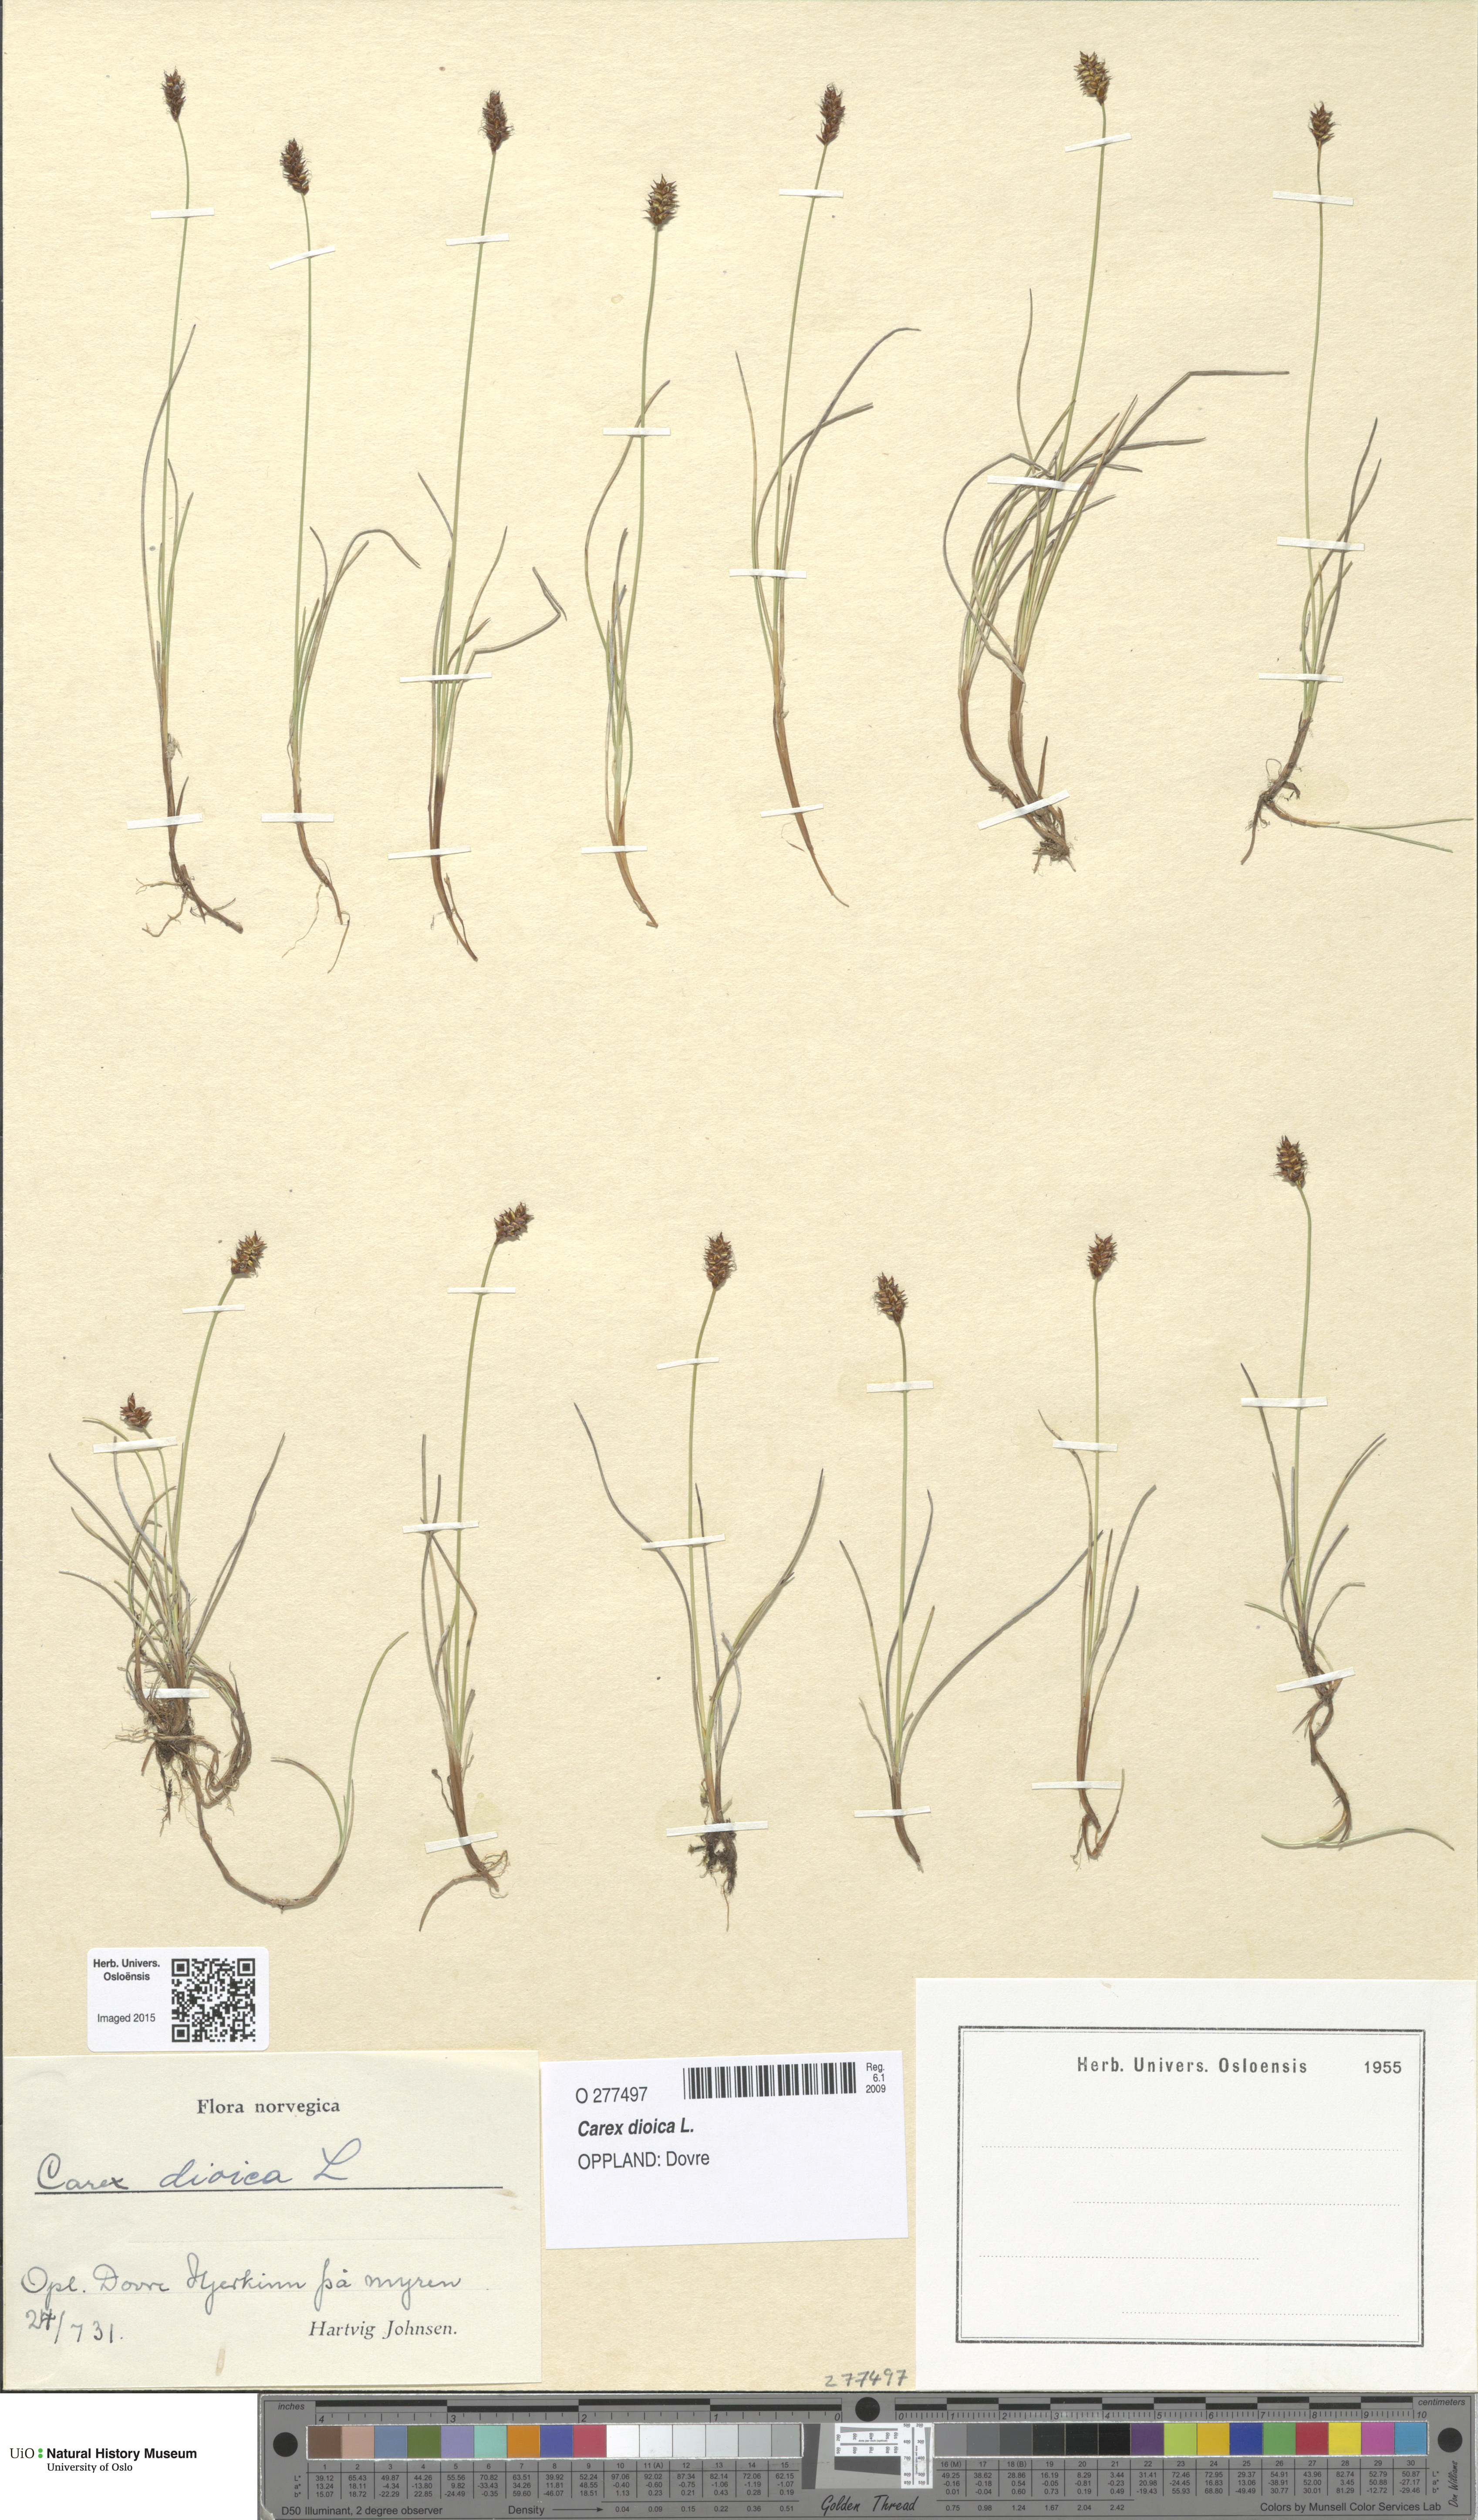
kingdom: Plantae
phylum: Tracheophyta
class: Liliopsida
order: Poales
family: Cyperaceae
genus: Carex
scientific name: Carex dioica
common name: Dioecious sedge
